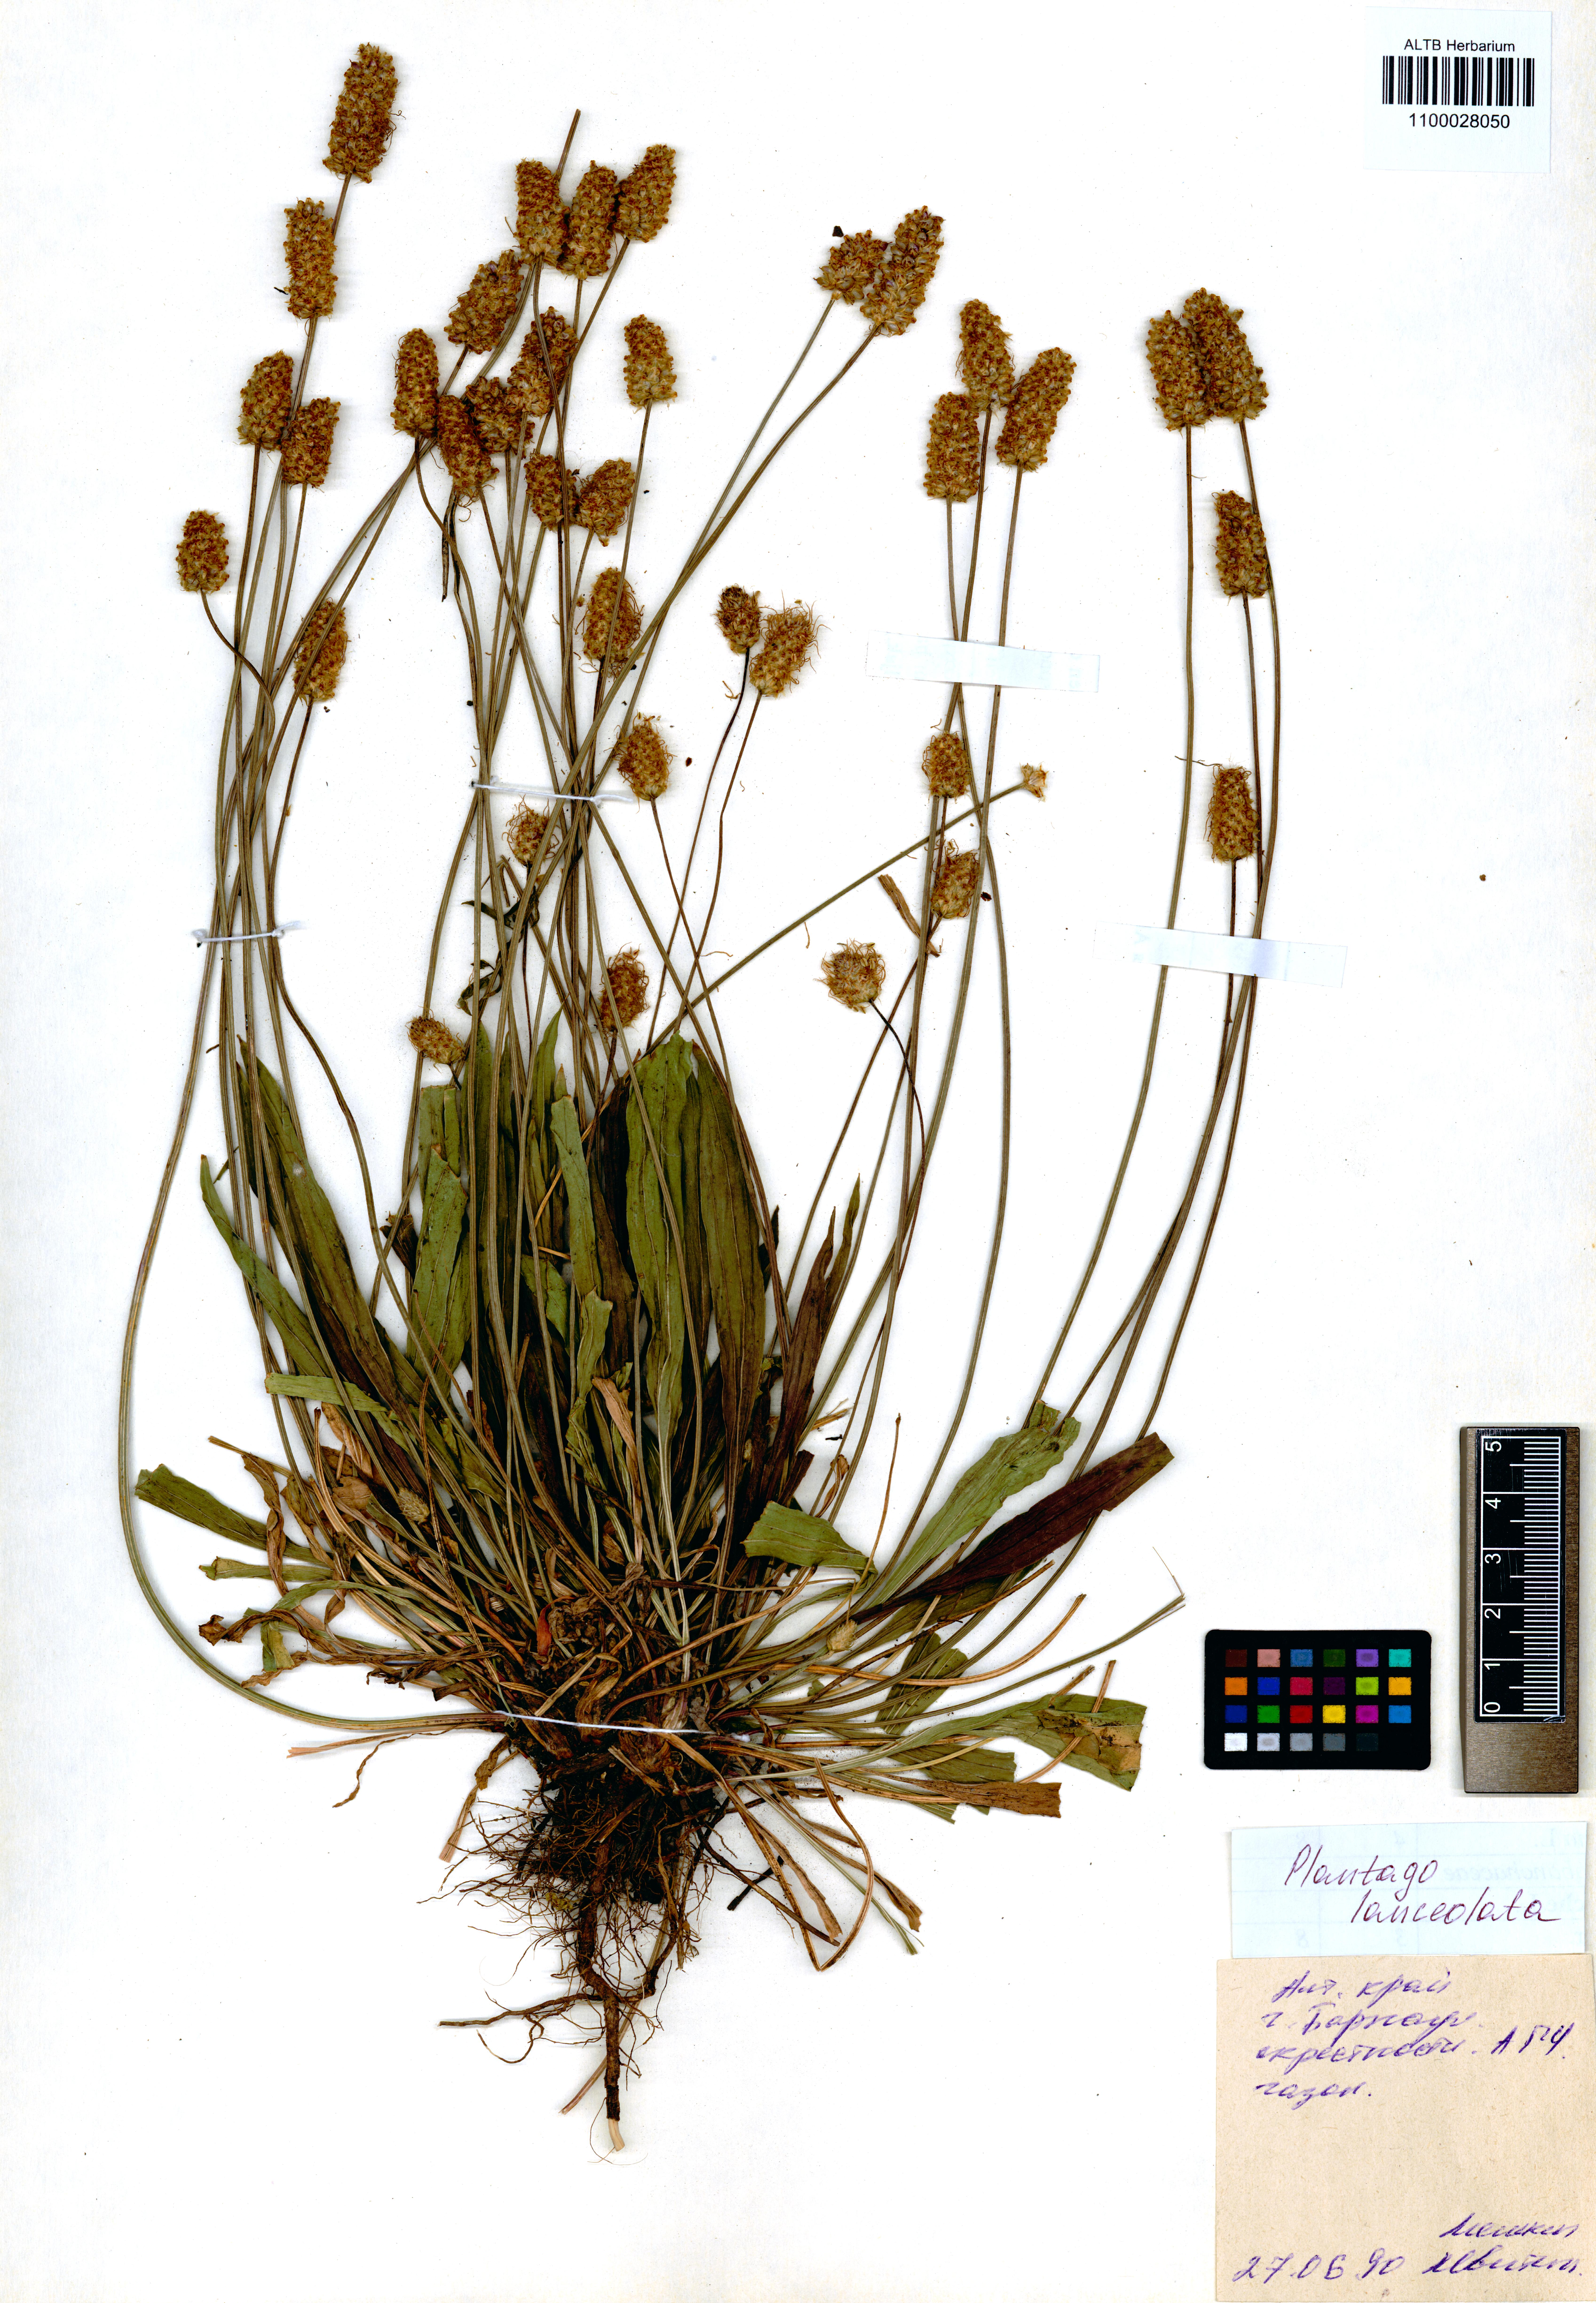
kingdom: Plantae
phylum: Tracheophyta
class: Magnoliopsida
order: Lamiales
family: Plantaginaceae
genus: Plantago
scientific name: Plantago lanceolata
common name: Ribwort plantain
